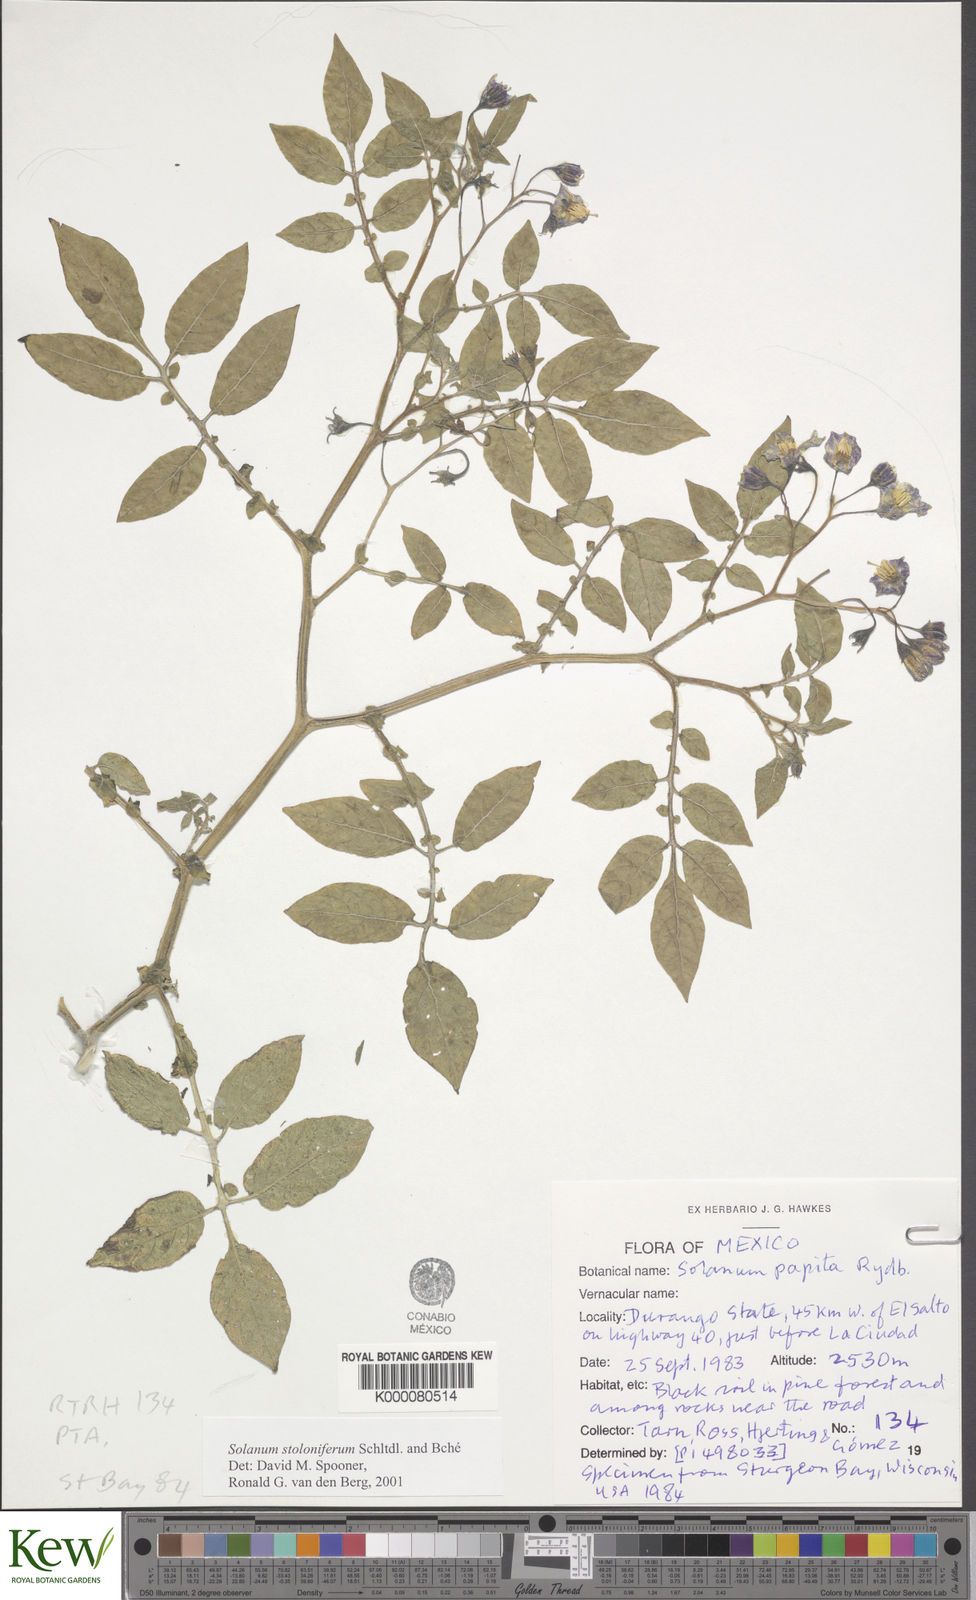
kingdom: Plantae
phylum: Tracheophyta
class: Magnoliopsida
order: Solanales
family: Solanaceae
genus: Solanum
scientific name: Solanum stoloniferum
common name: Fendler's nighshade
